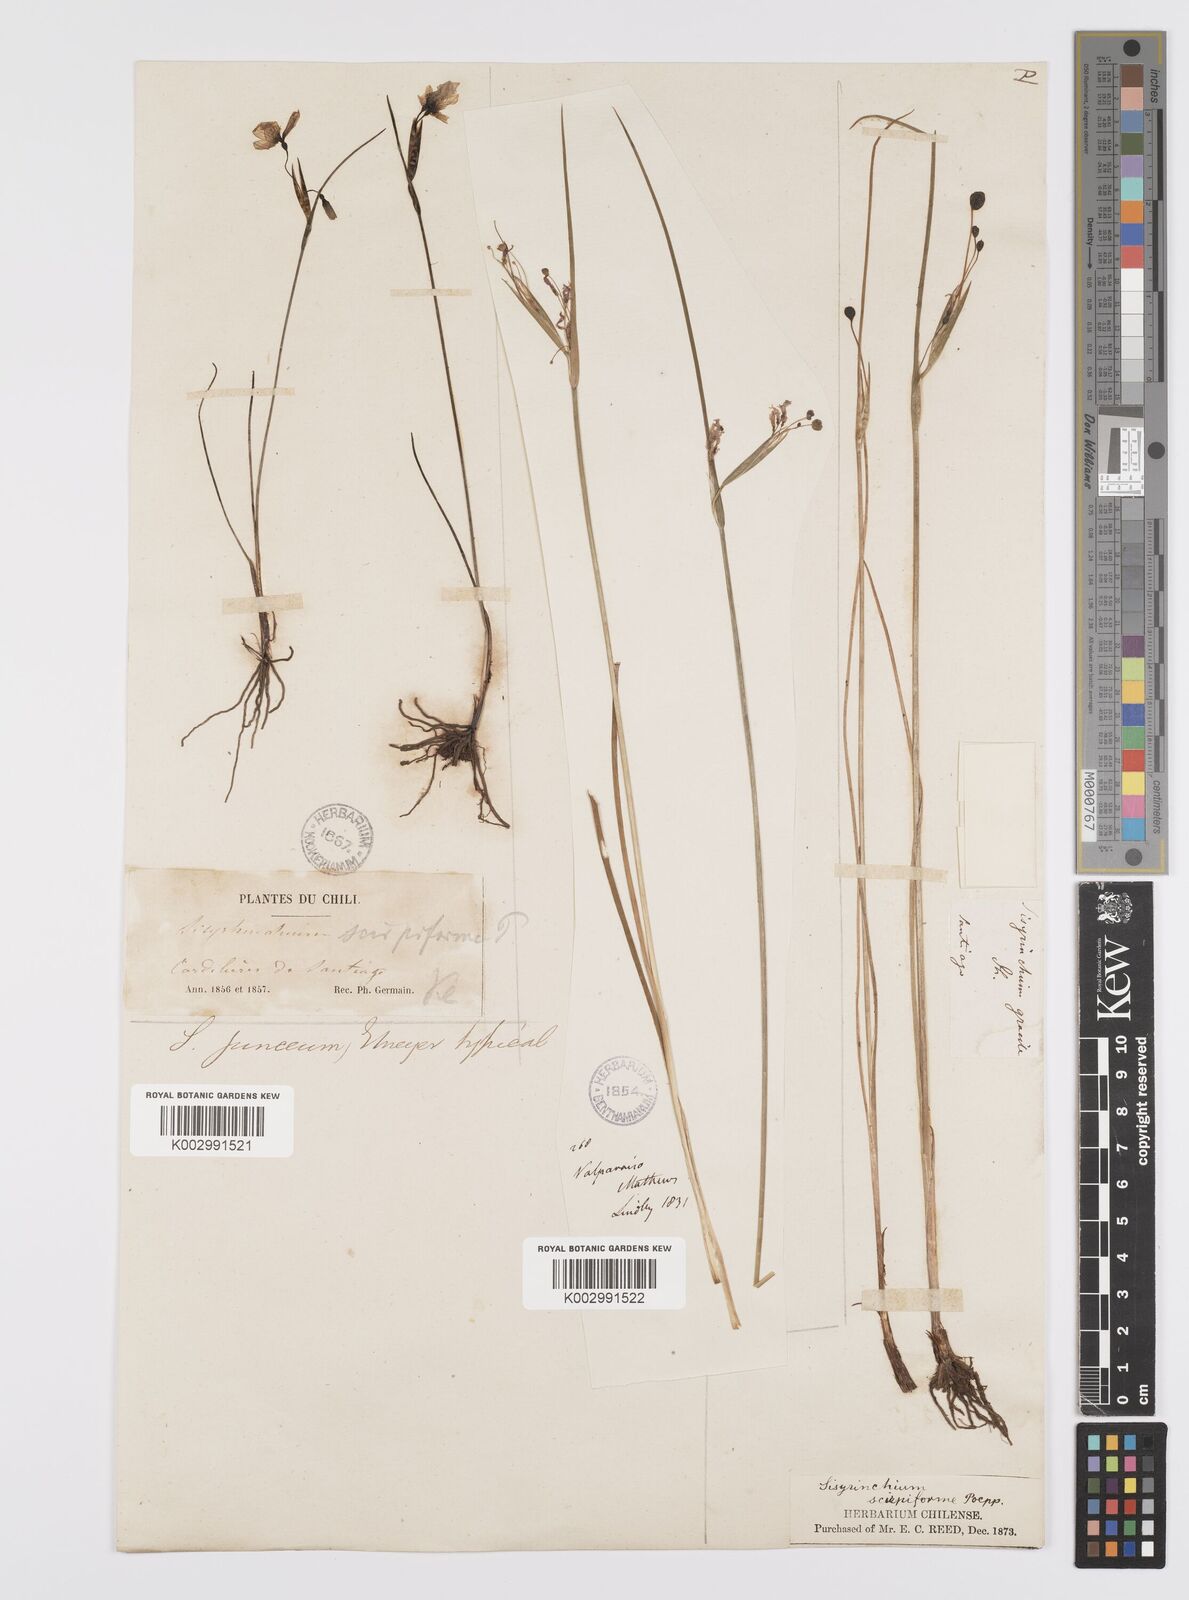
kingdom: Plantae
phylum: Tracheophyta
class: Liliopsida
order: Asparagales
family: Iridaceae
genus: Olsynium
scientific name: Olsynium junceum
